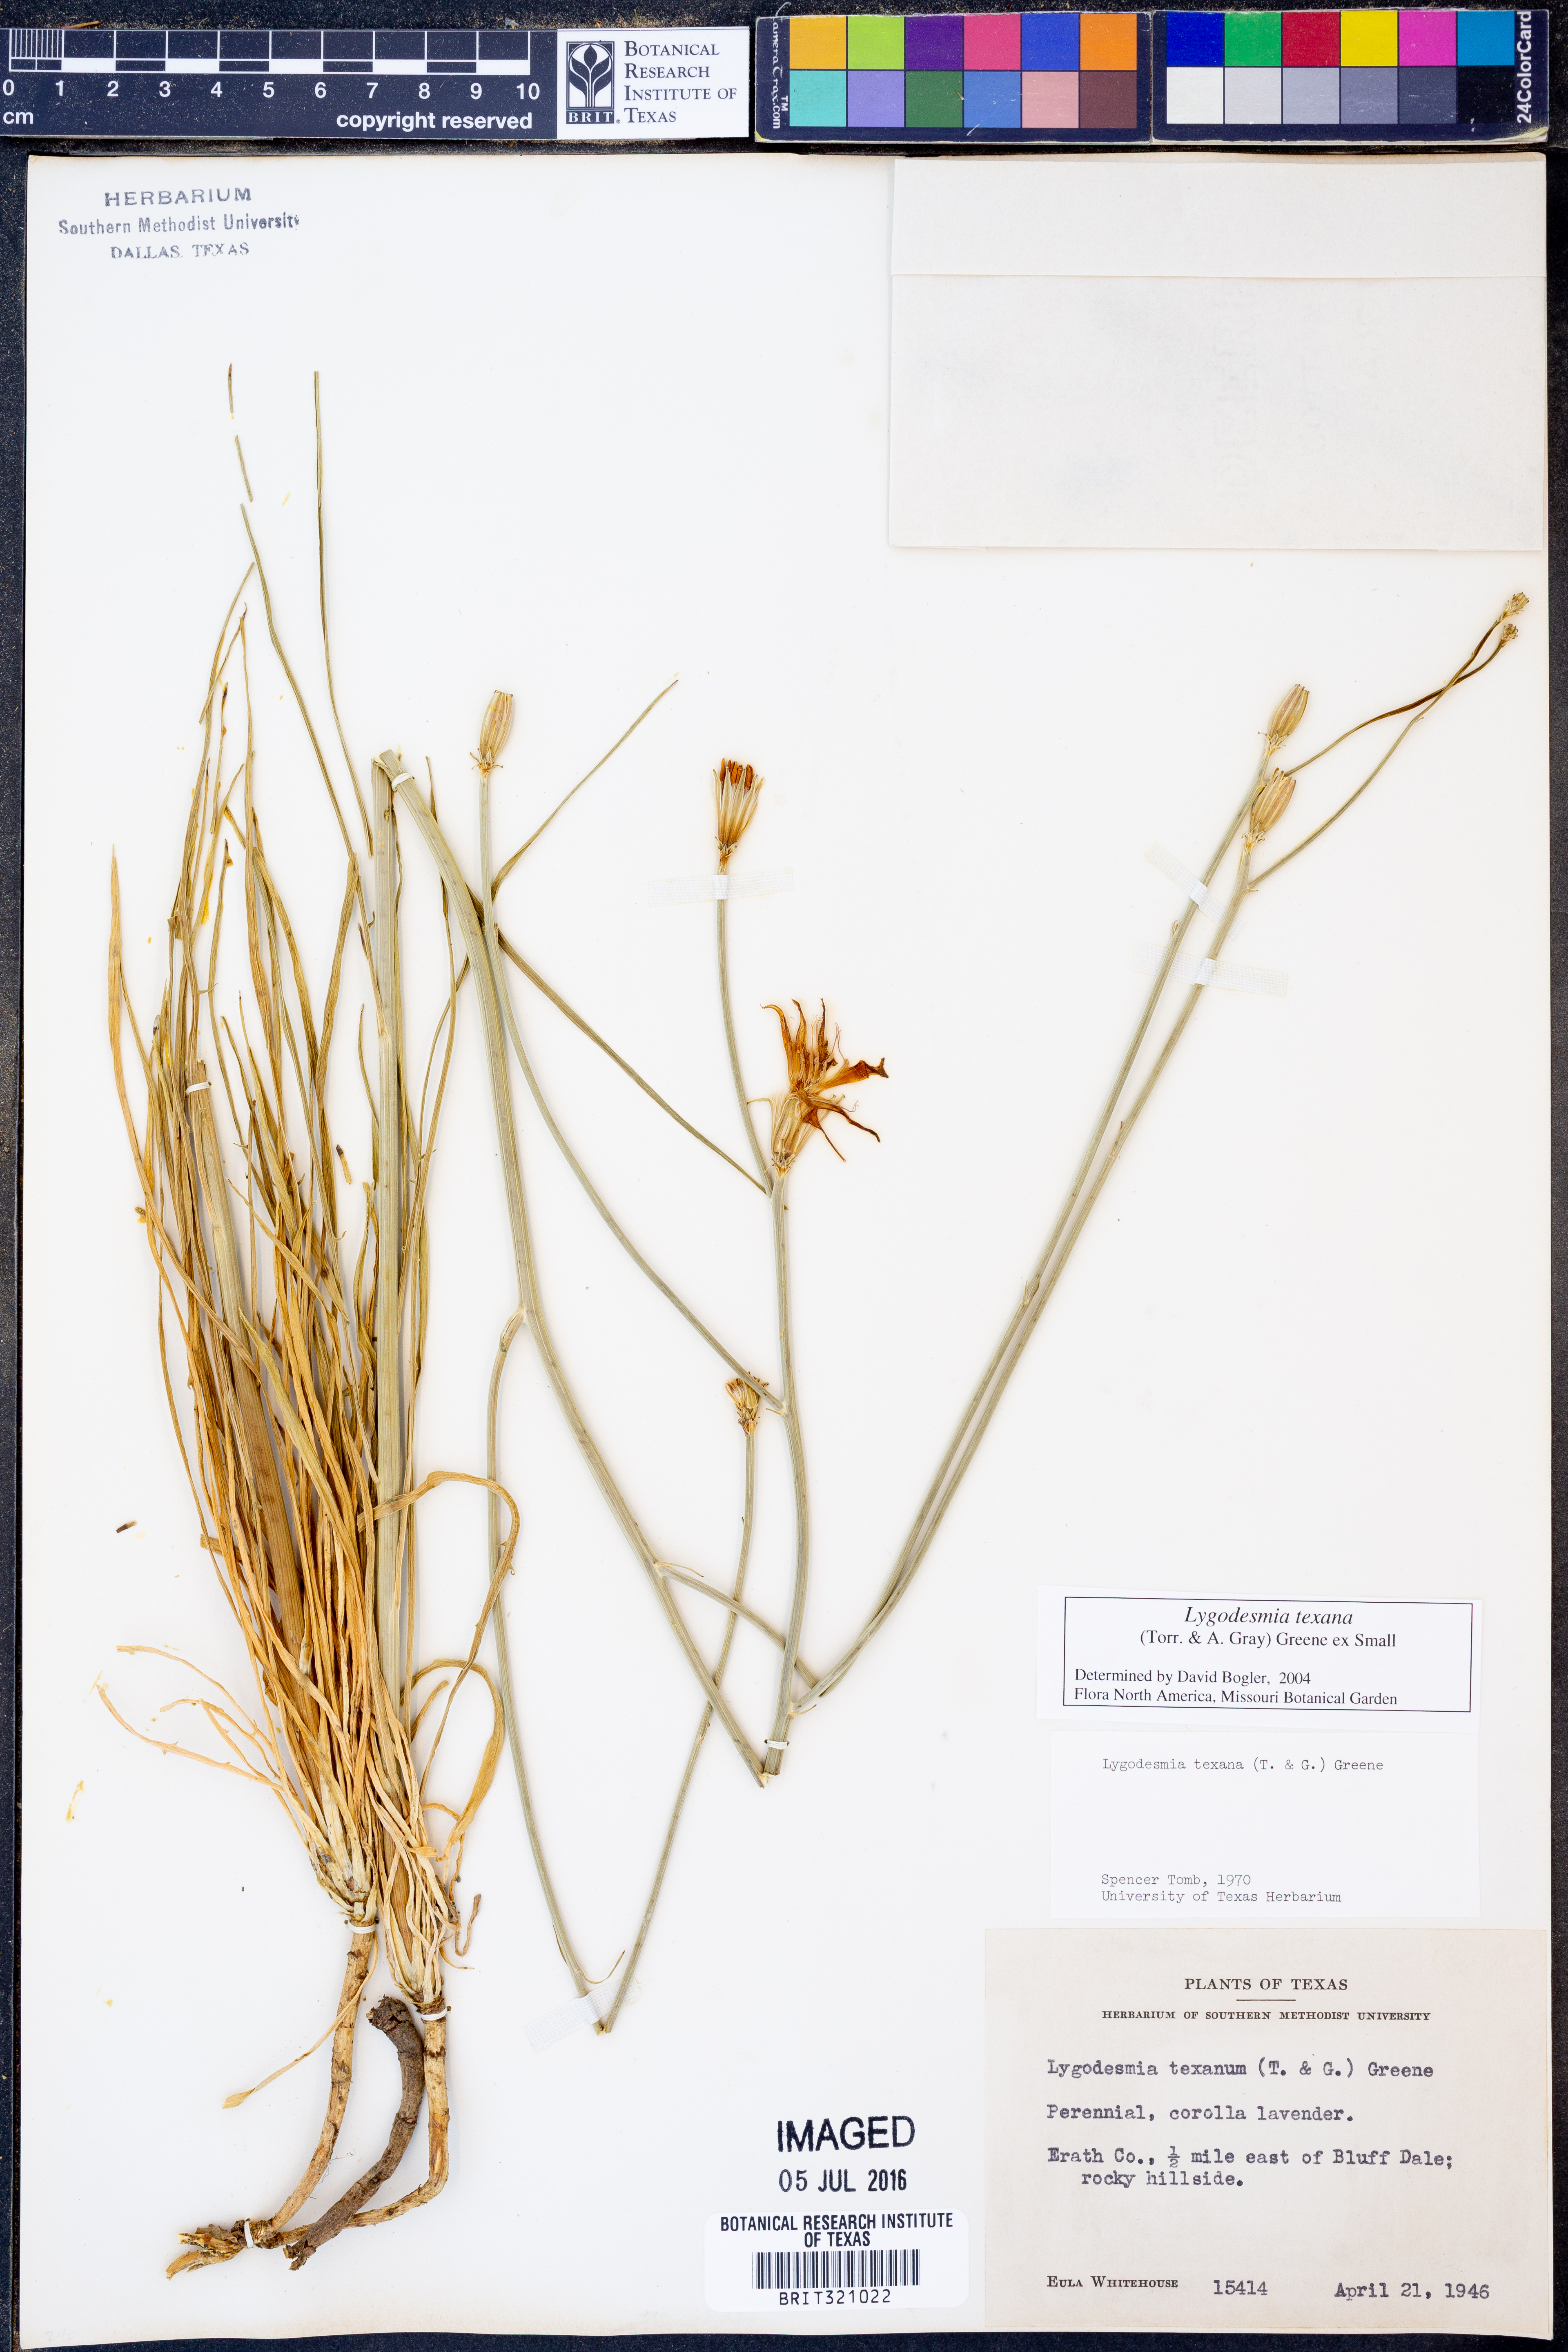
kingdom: Plantae
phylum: Tracheophyta
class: Magnoliopsida
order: Asterales
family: Asteraceae
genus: Lygodesmia
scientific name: Lygodesmia texana
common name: Texas skeleton-plant
